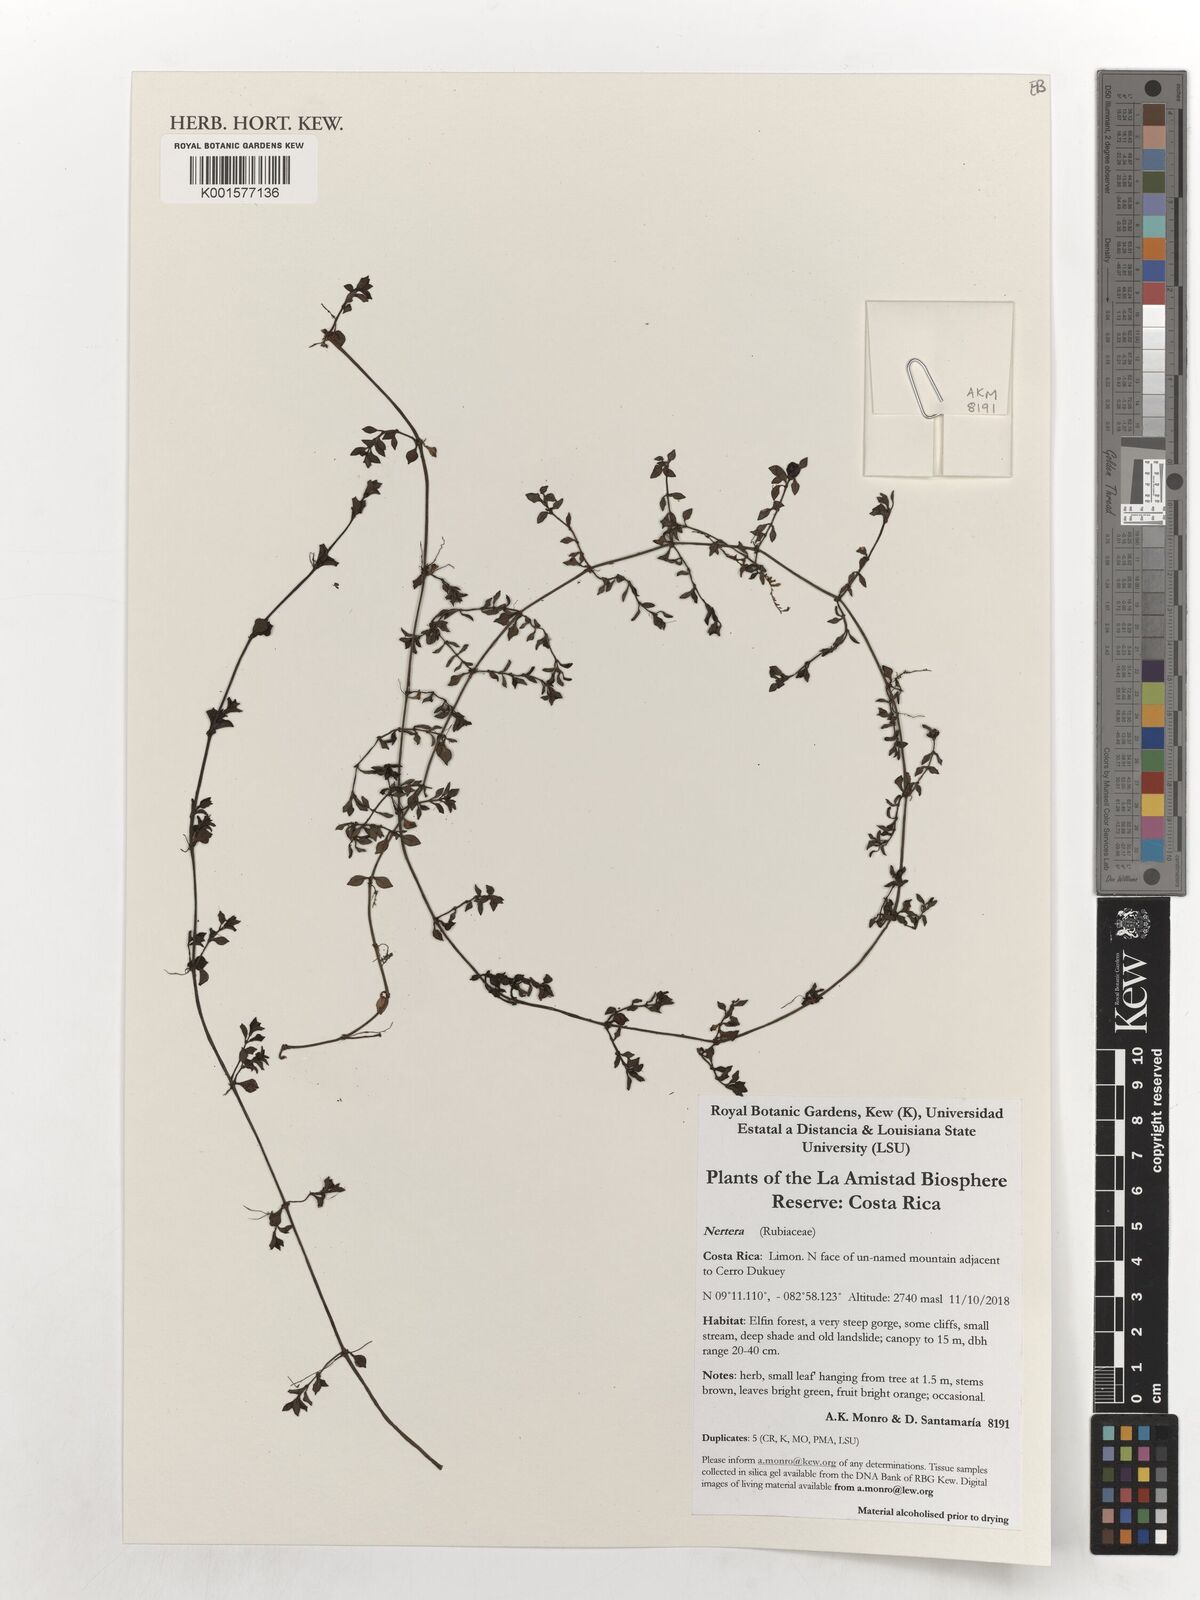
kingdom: Plantae
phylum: Tracheophyta
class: Magnoliopsida
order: Gentianales
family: Rubiaceae
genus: Nertera
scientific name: Nertera
